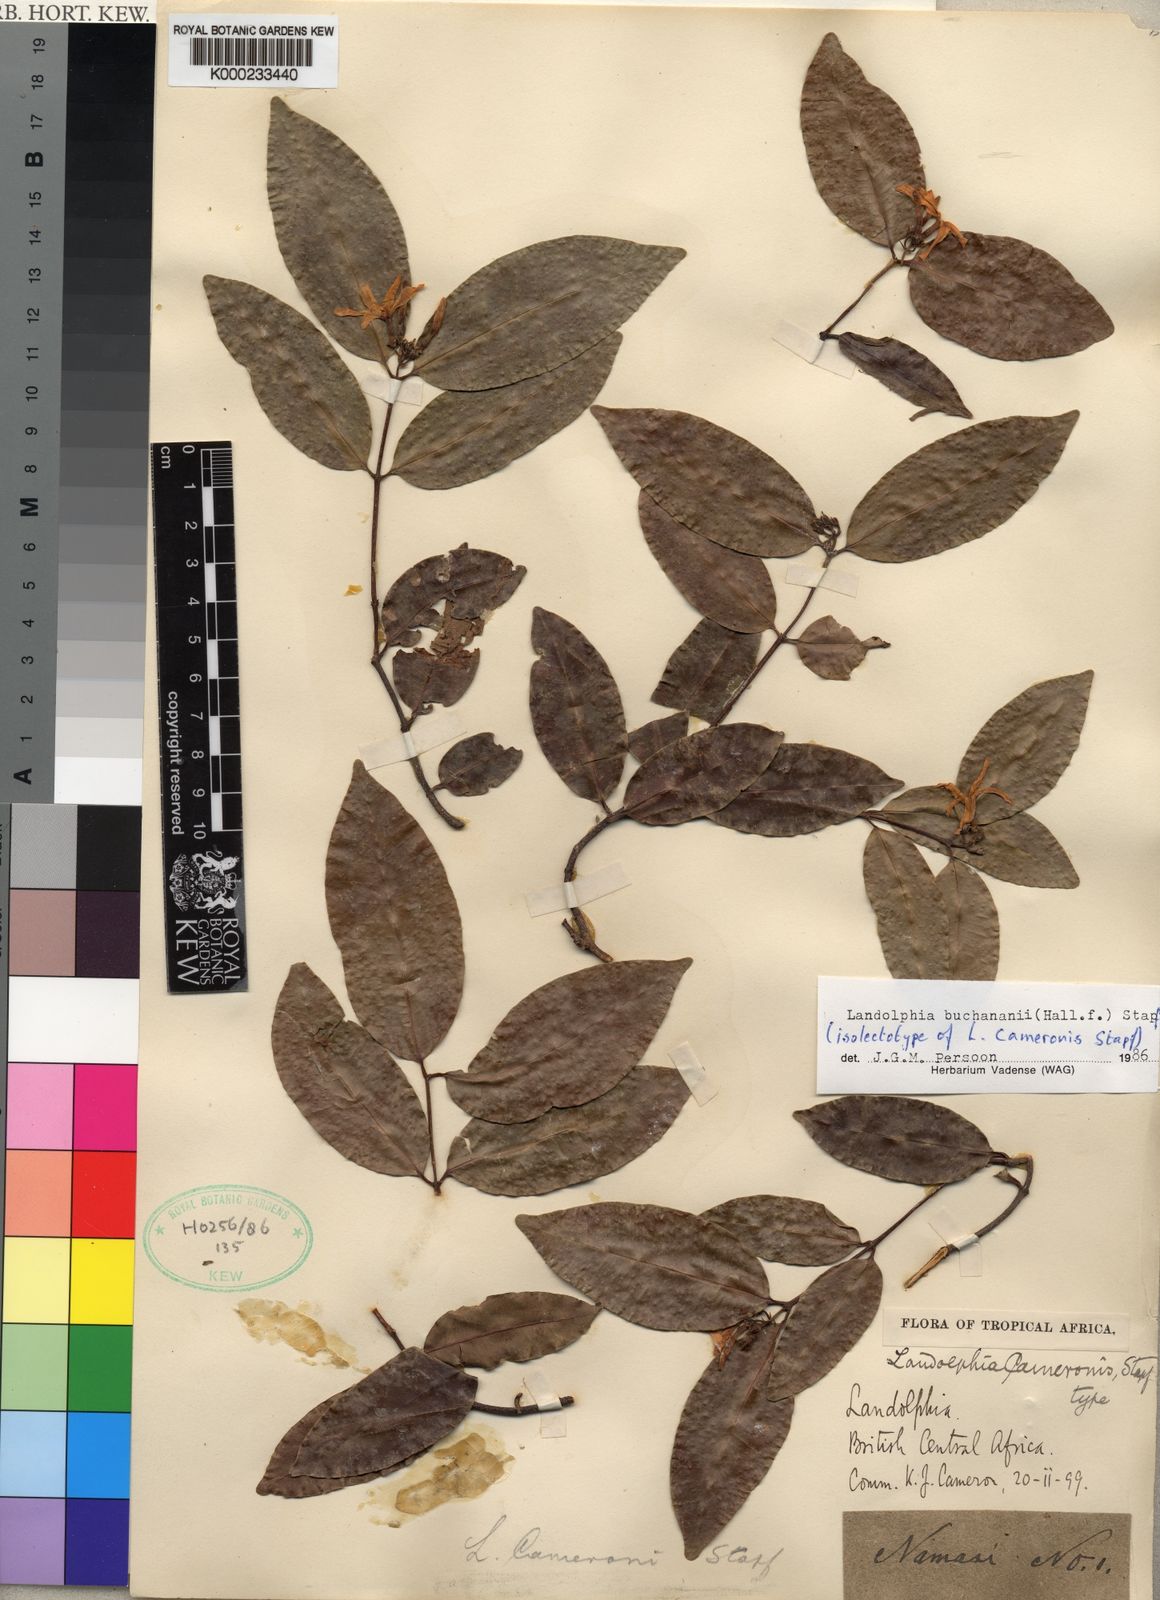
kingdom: Plantae
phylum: Tracheophyta
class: Magnoliopsida
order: Gentianales
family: Apocynaceae
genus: Landolphia
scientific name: Landolphia buchananii
